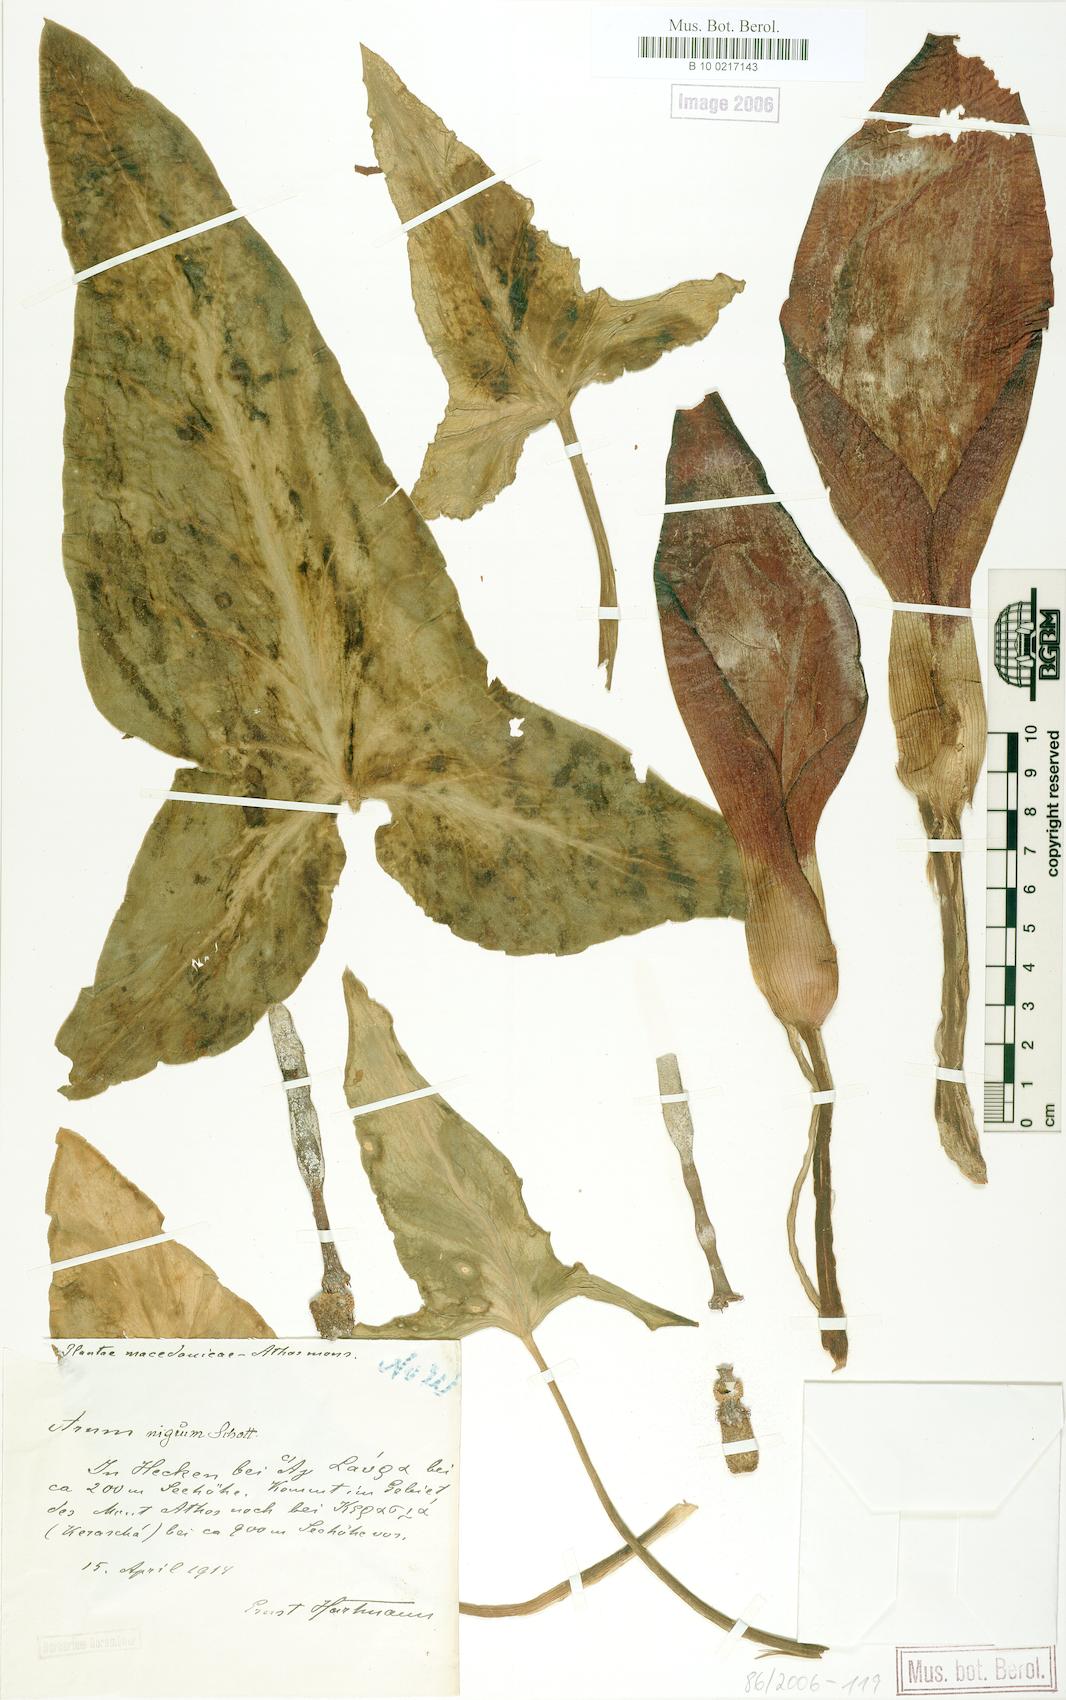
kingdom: Plantae
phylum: Tracheophyta
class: Liliopsida
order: Alismatales
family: Araceae
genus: Arum
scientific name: Arum nigrum
